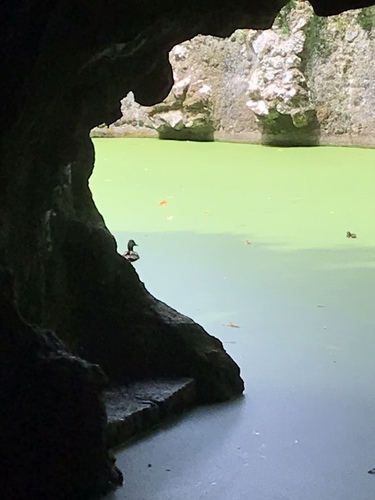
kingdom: Animalia
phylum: Chordata
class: Aves
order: Anseriformes
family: Anatidae
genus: Anas
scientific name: Anas platyrhynchos
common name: Mallard
